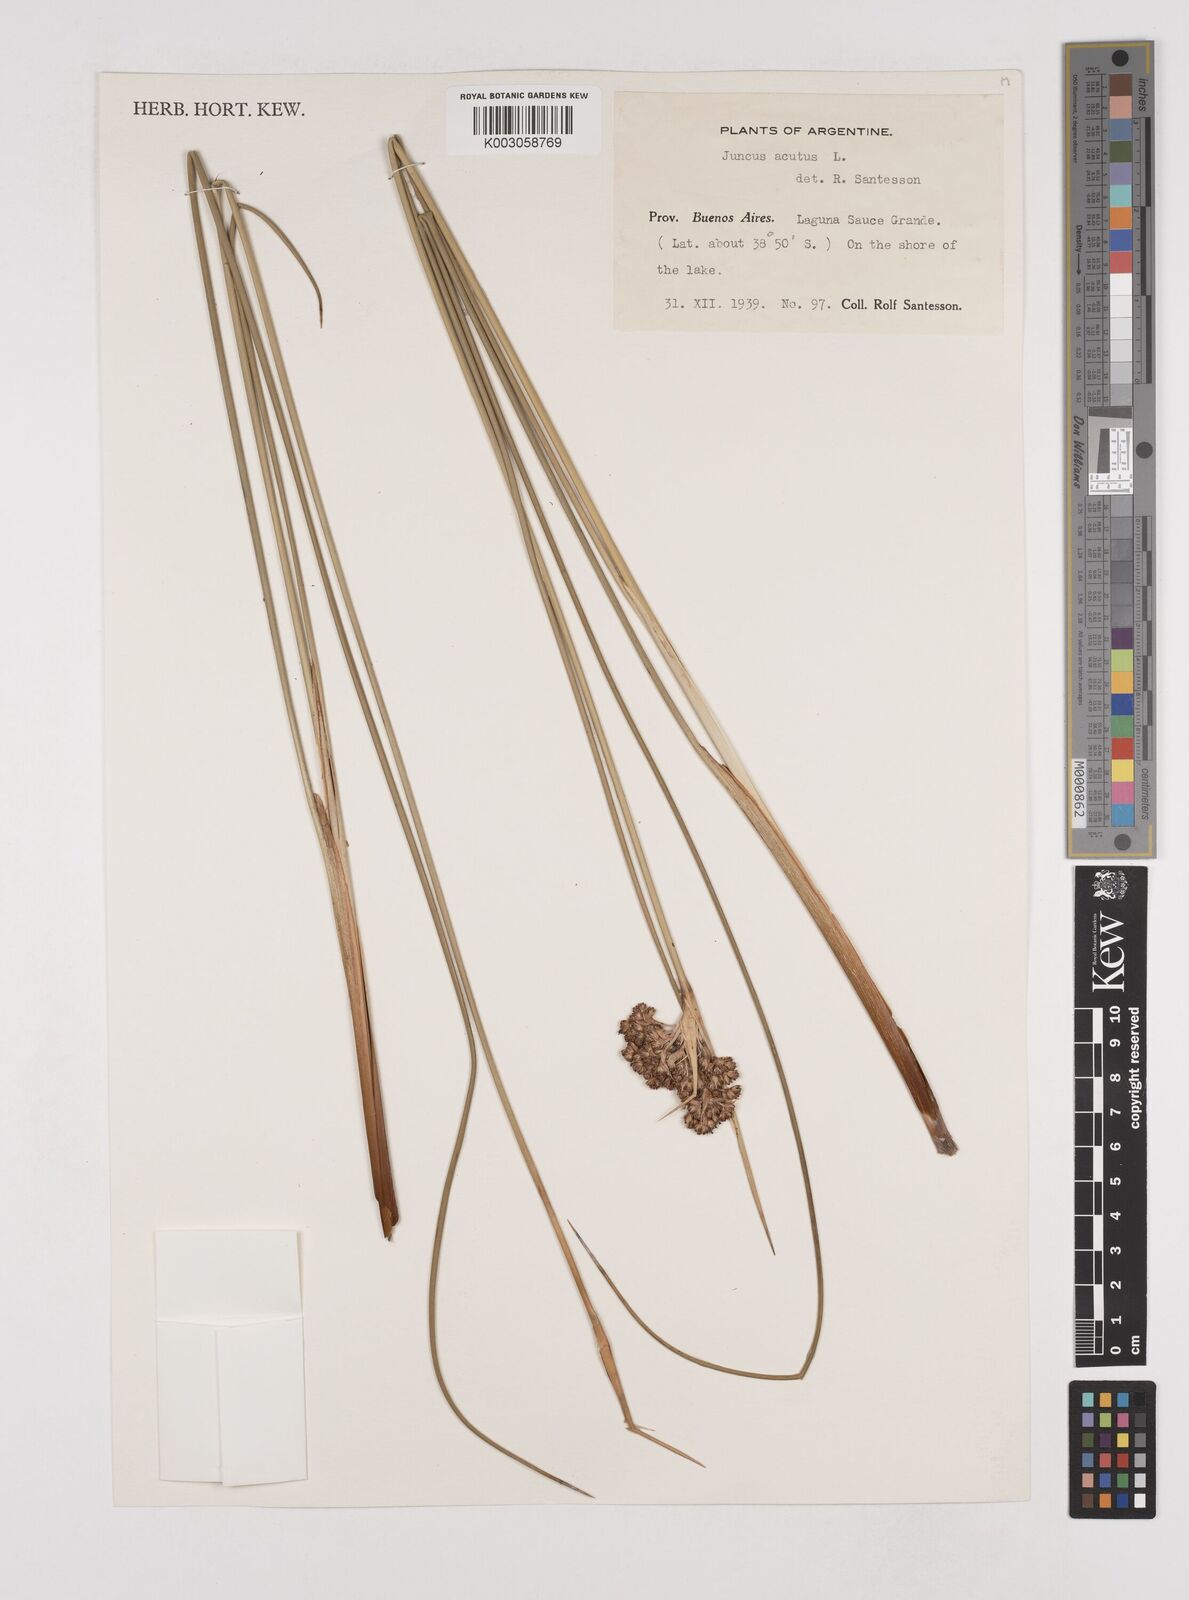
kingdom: Plantae
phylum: Tracheophyta
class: Liliopsida
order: Poales
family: Juncaceae
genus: Juncus
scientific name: Juncus acutus
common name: Sharp rush
